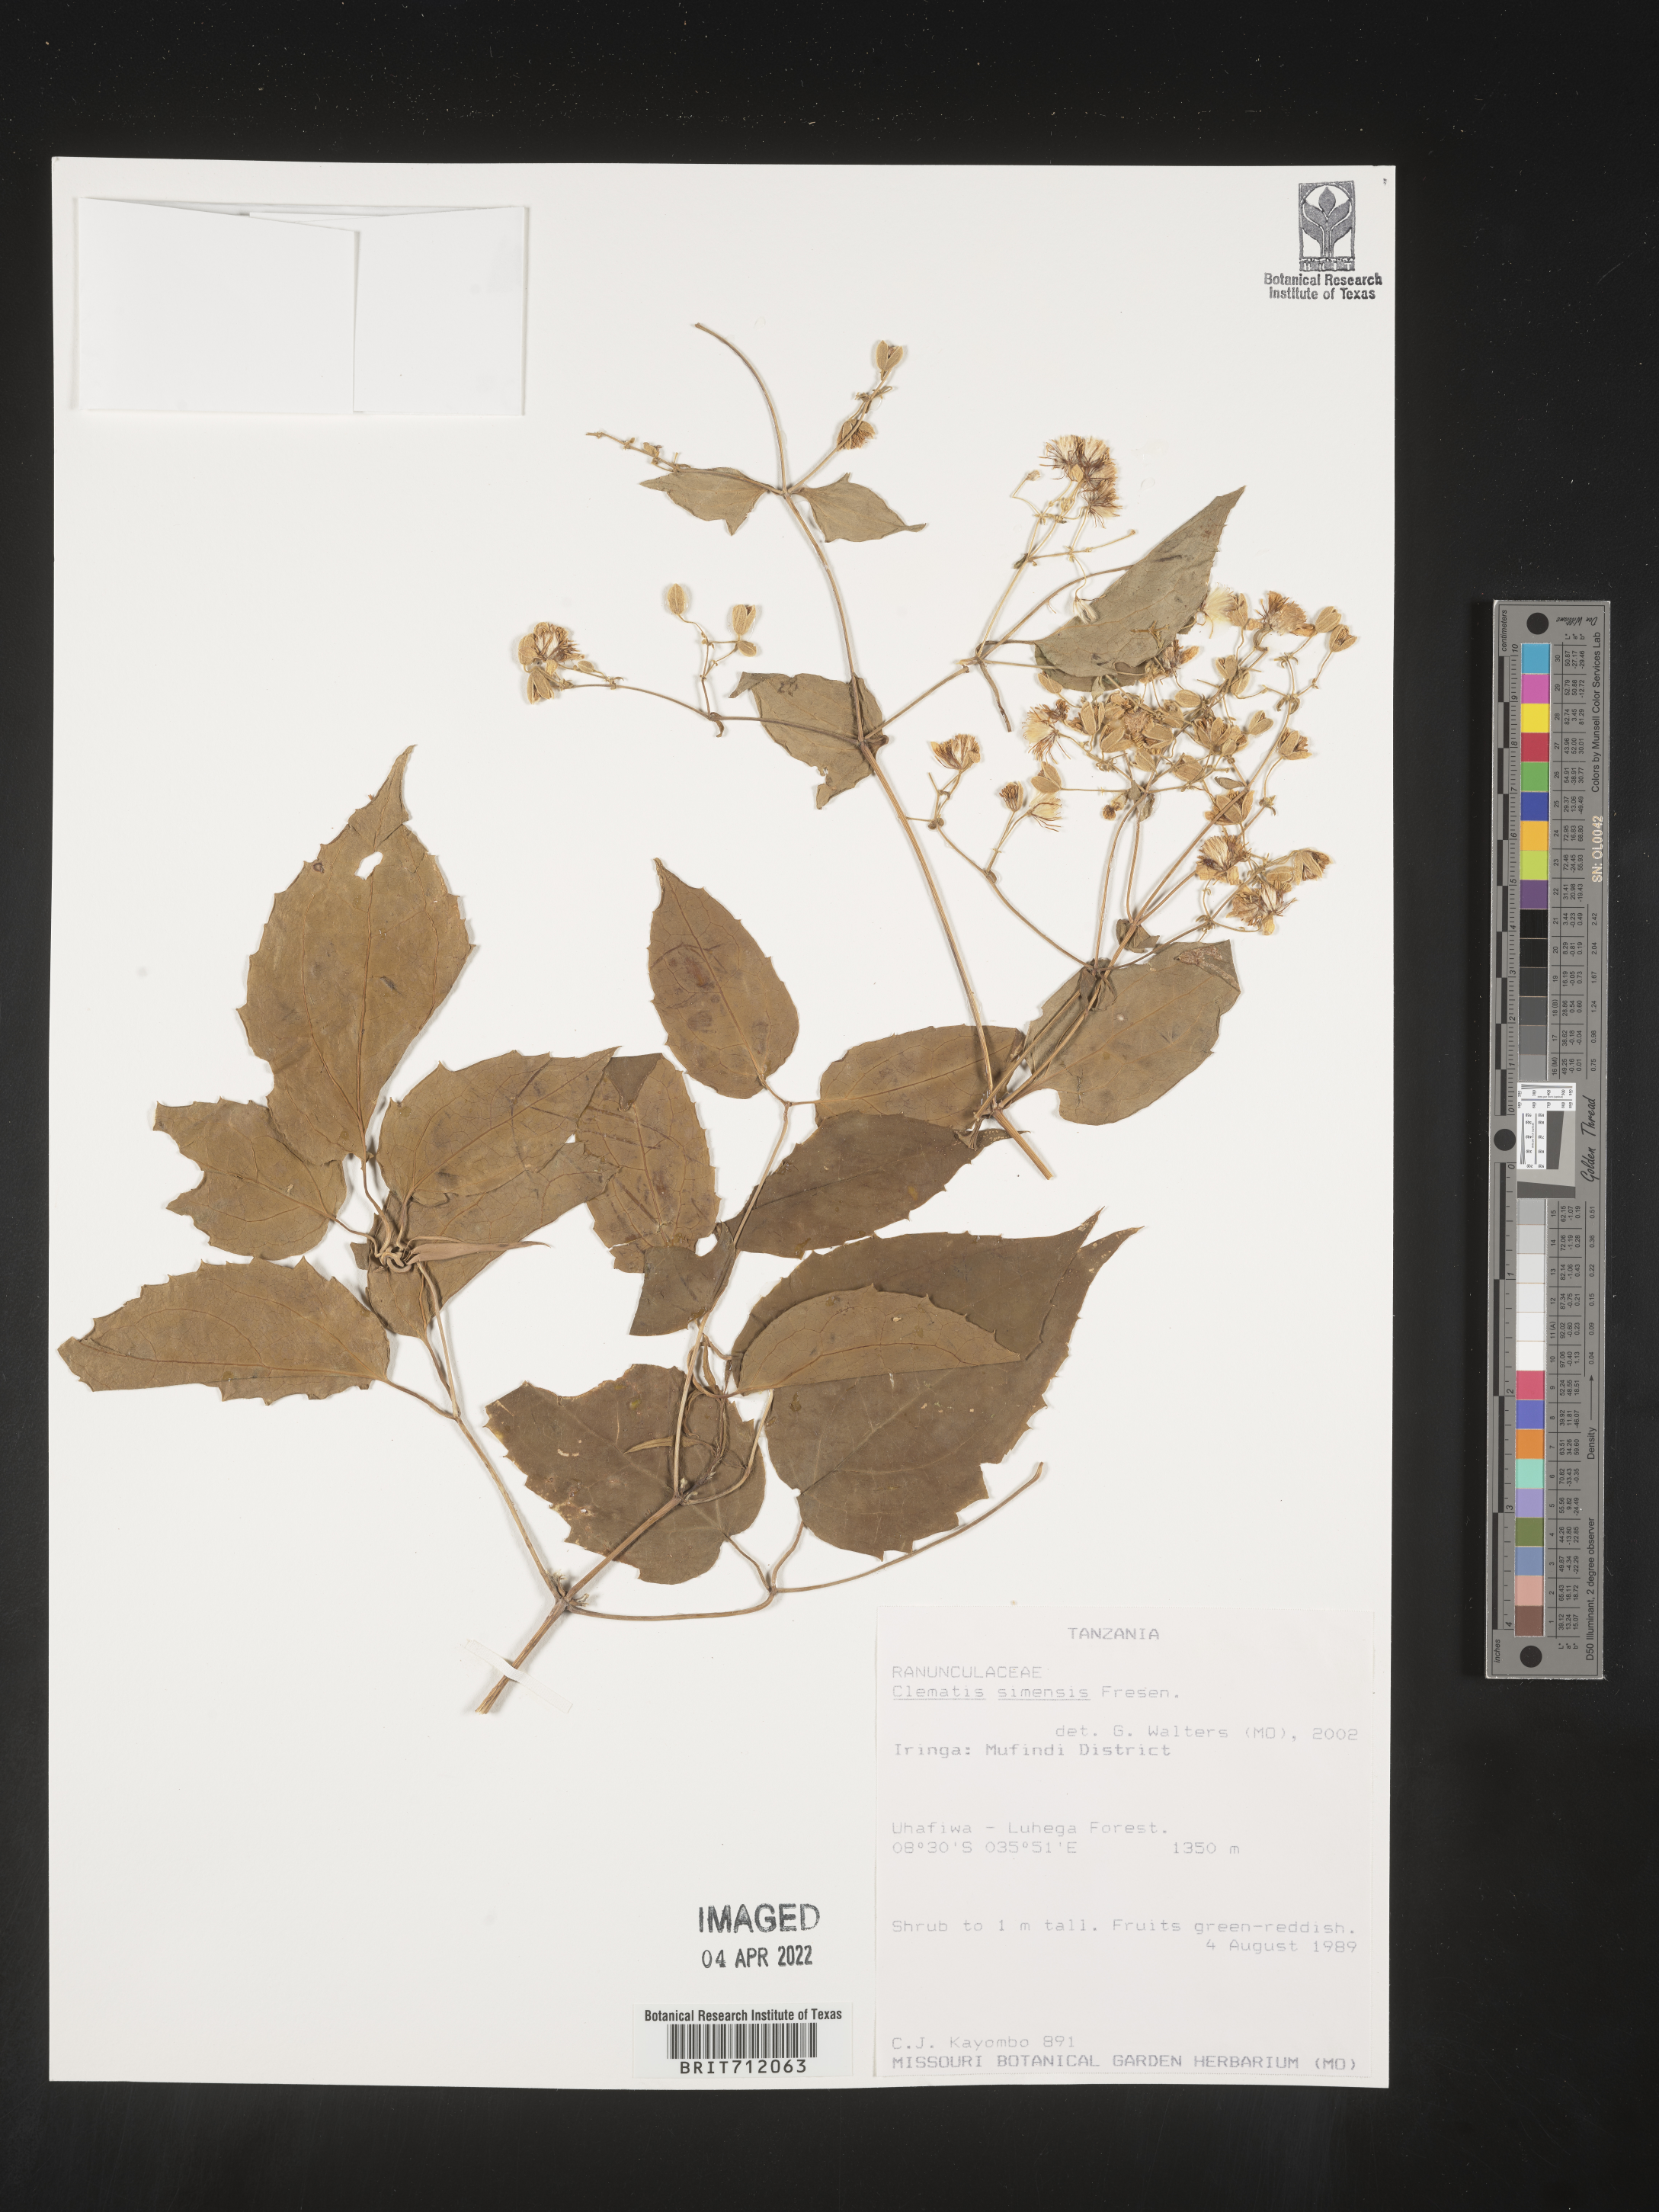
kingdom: Plantae
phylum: Tracheophyta
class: Magnoliopsida
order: Ranunculales
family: Ranunculaceae
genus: Clematis
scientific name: Clematis
